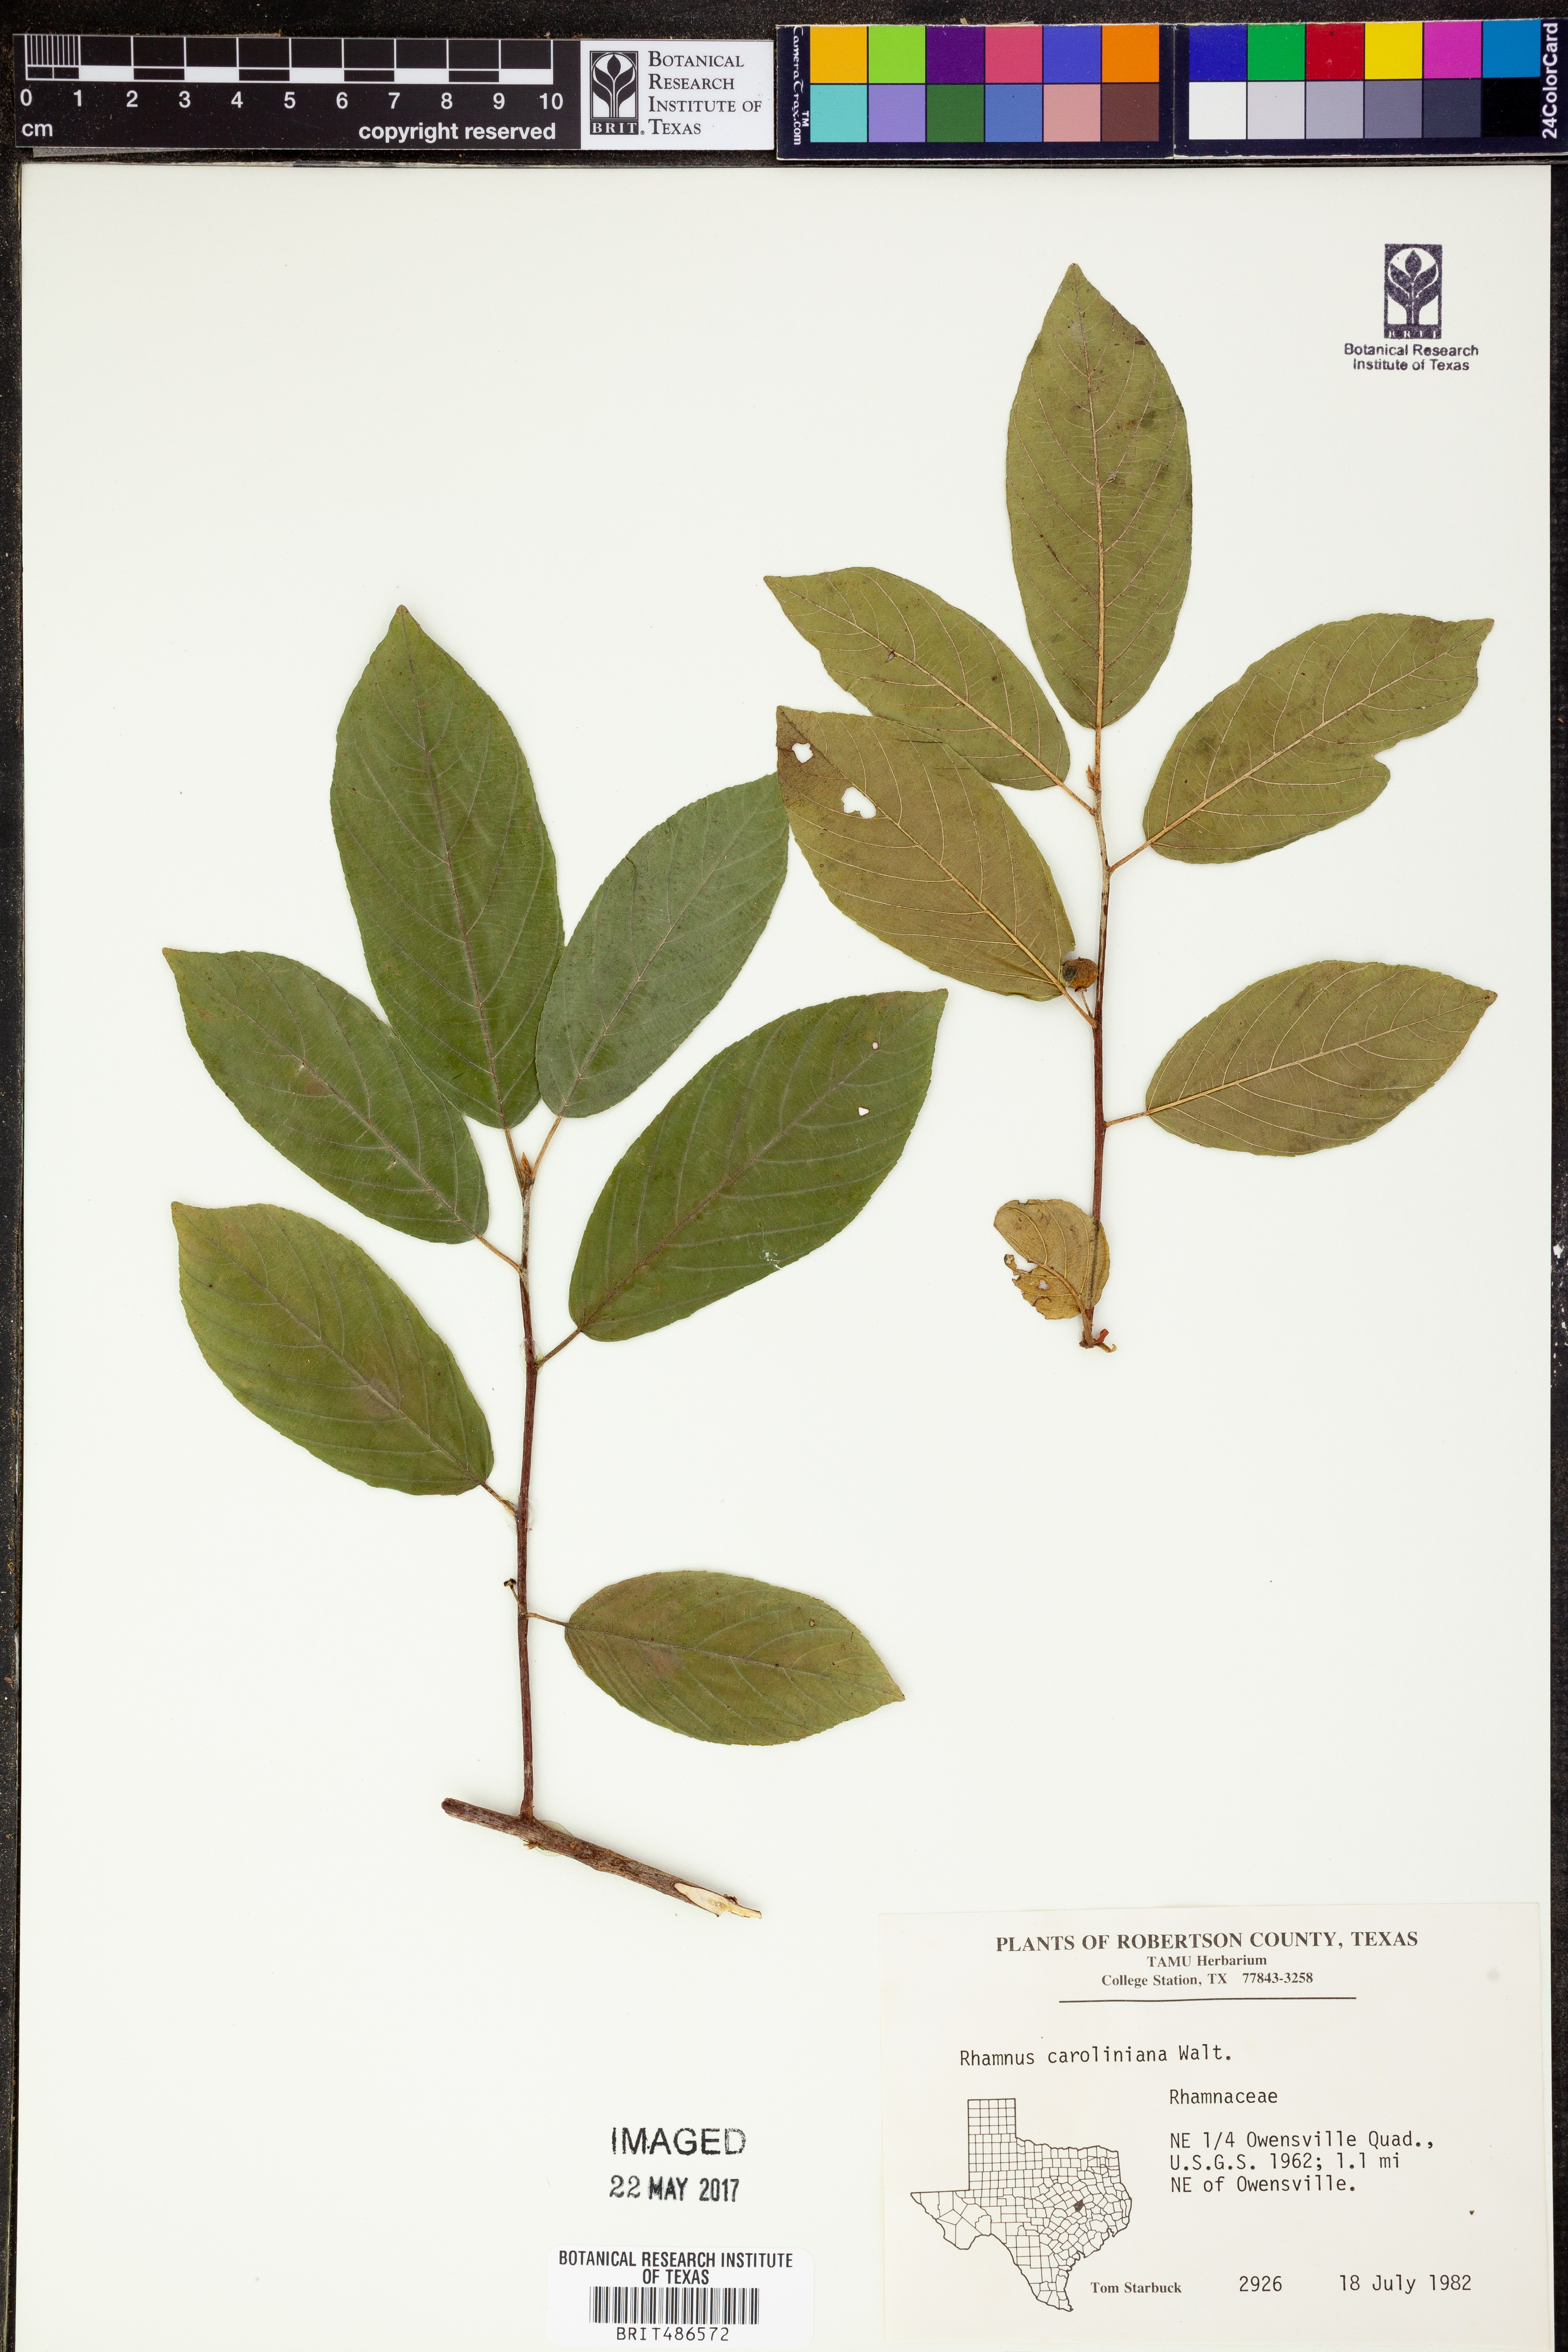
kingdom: Plantae
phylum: Tracheophyta
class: Magnoliopsida
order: Rosales
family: Rhamnaceae
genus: Frangula
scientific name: Frangula caroliniana
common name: Carolina buckthorn
